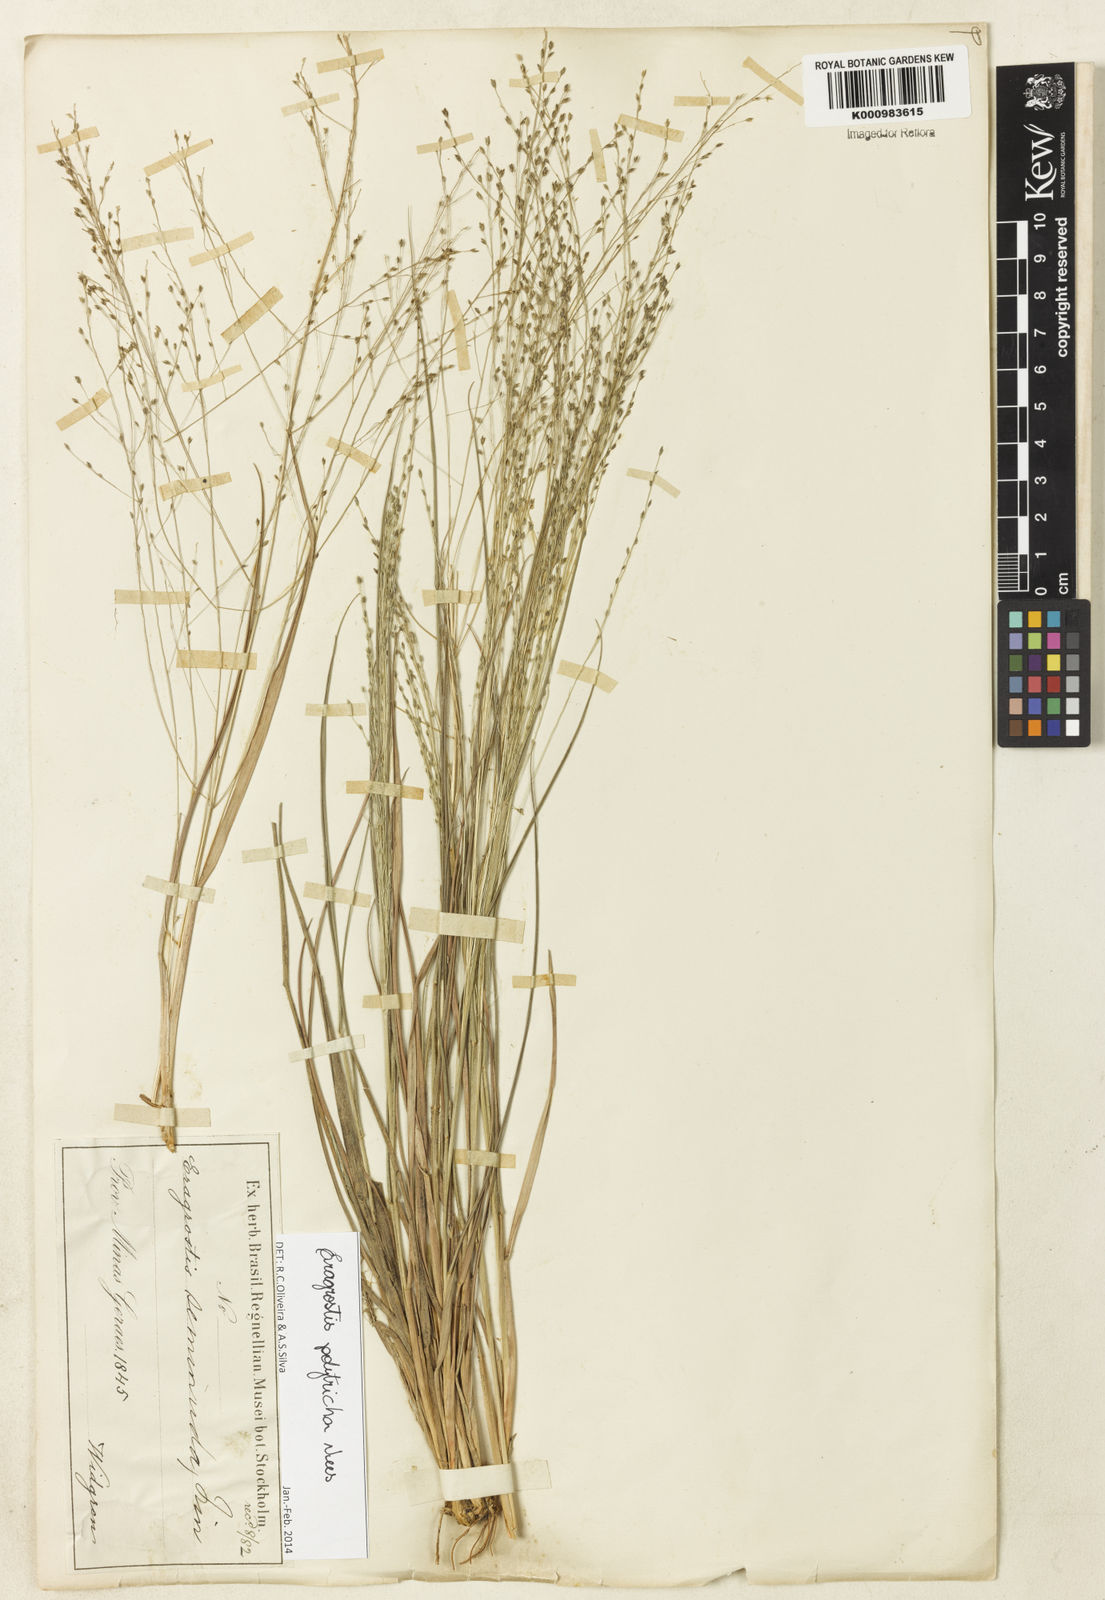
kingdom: Plantae
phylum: Tracheophyta
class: Liliopsida
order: Poales
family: Poaceae
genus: Eragrostis
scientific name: Eragrostis polytricha
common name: Hairy-sheath love grass
